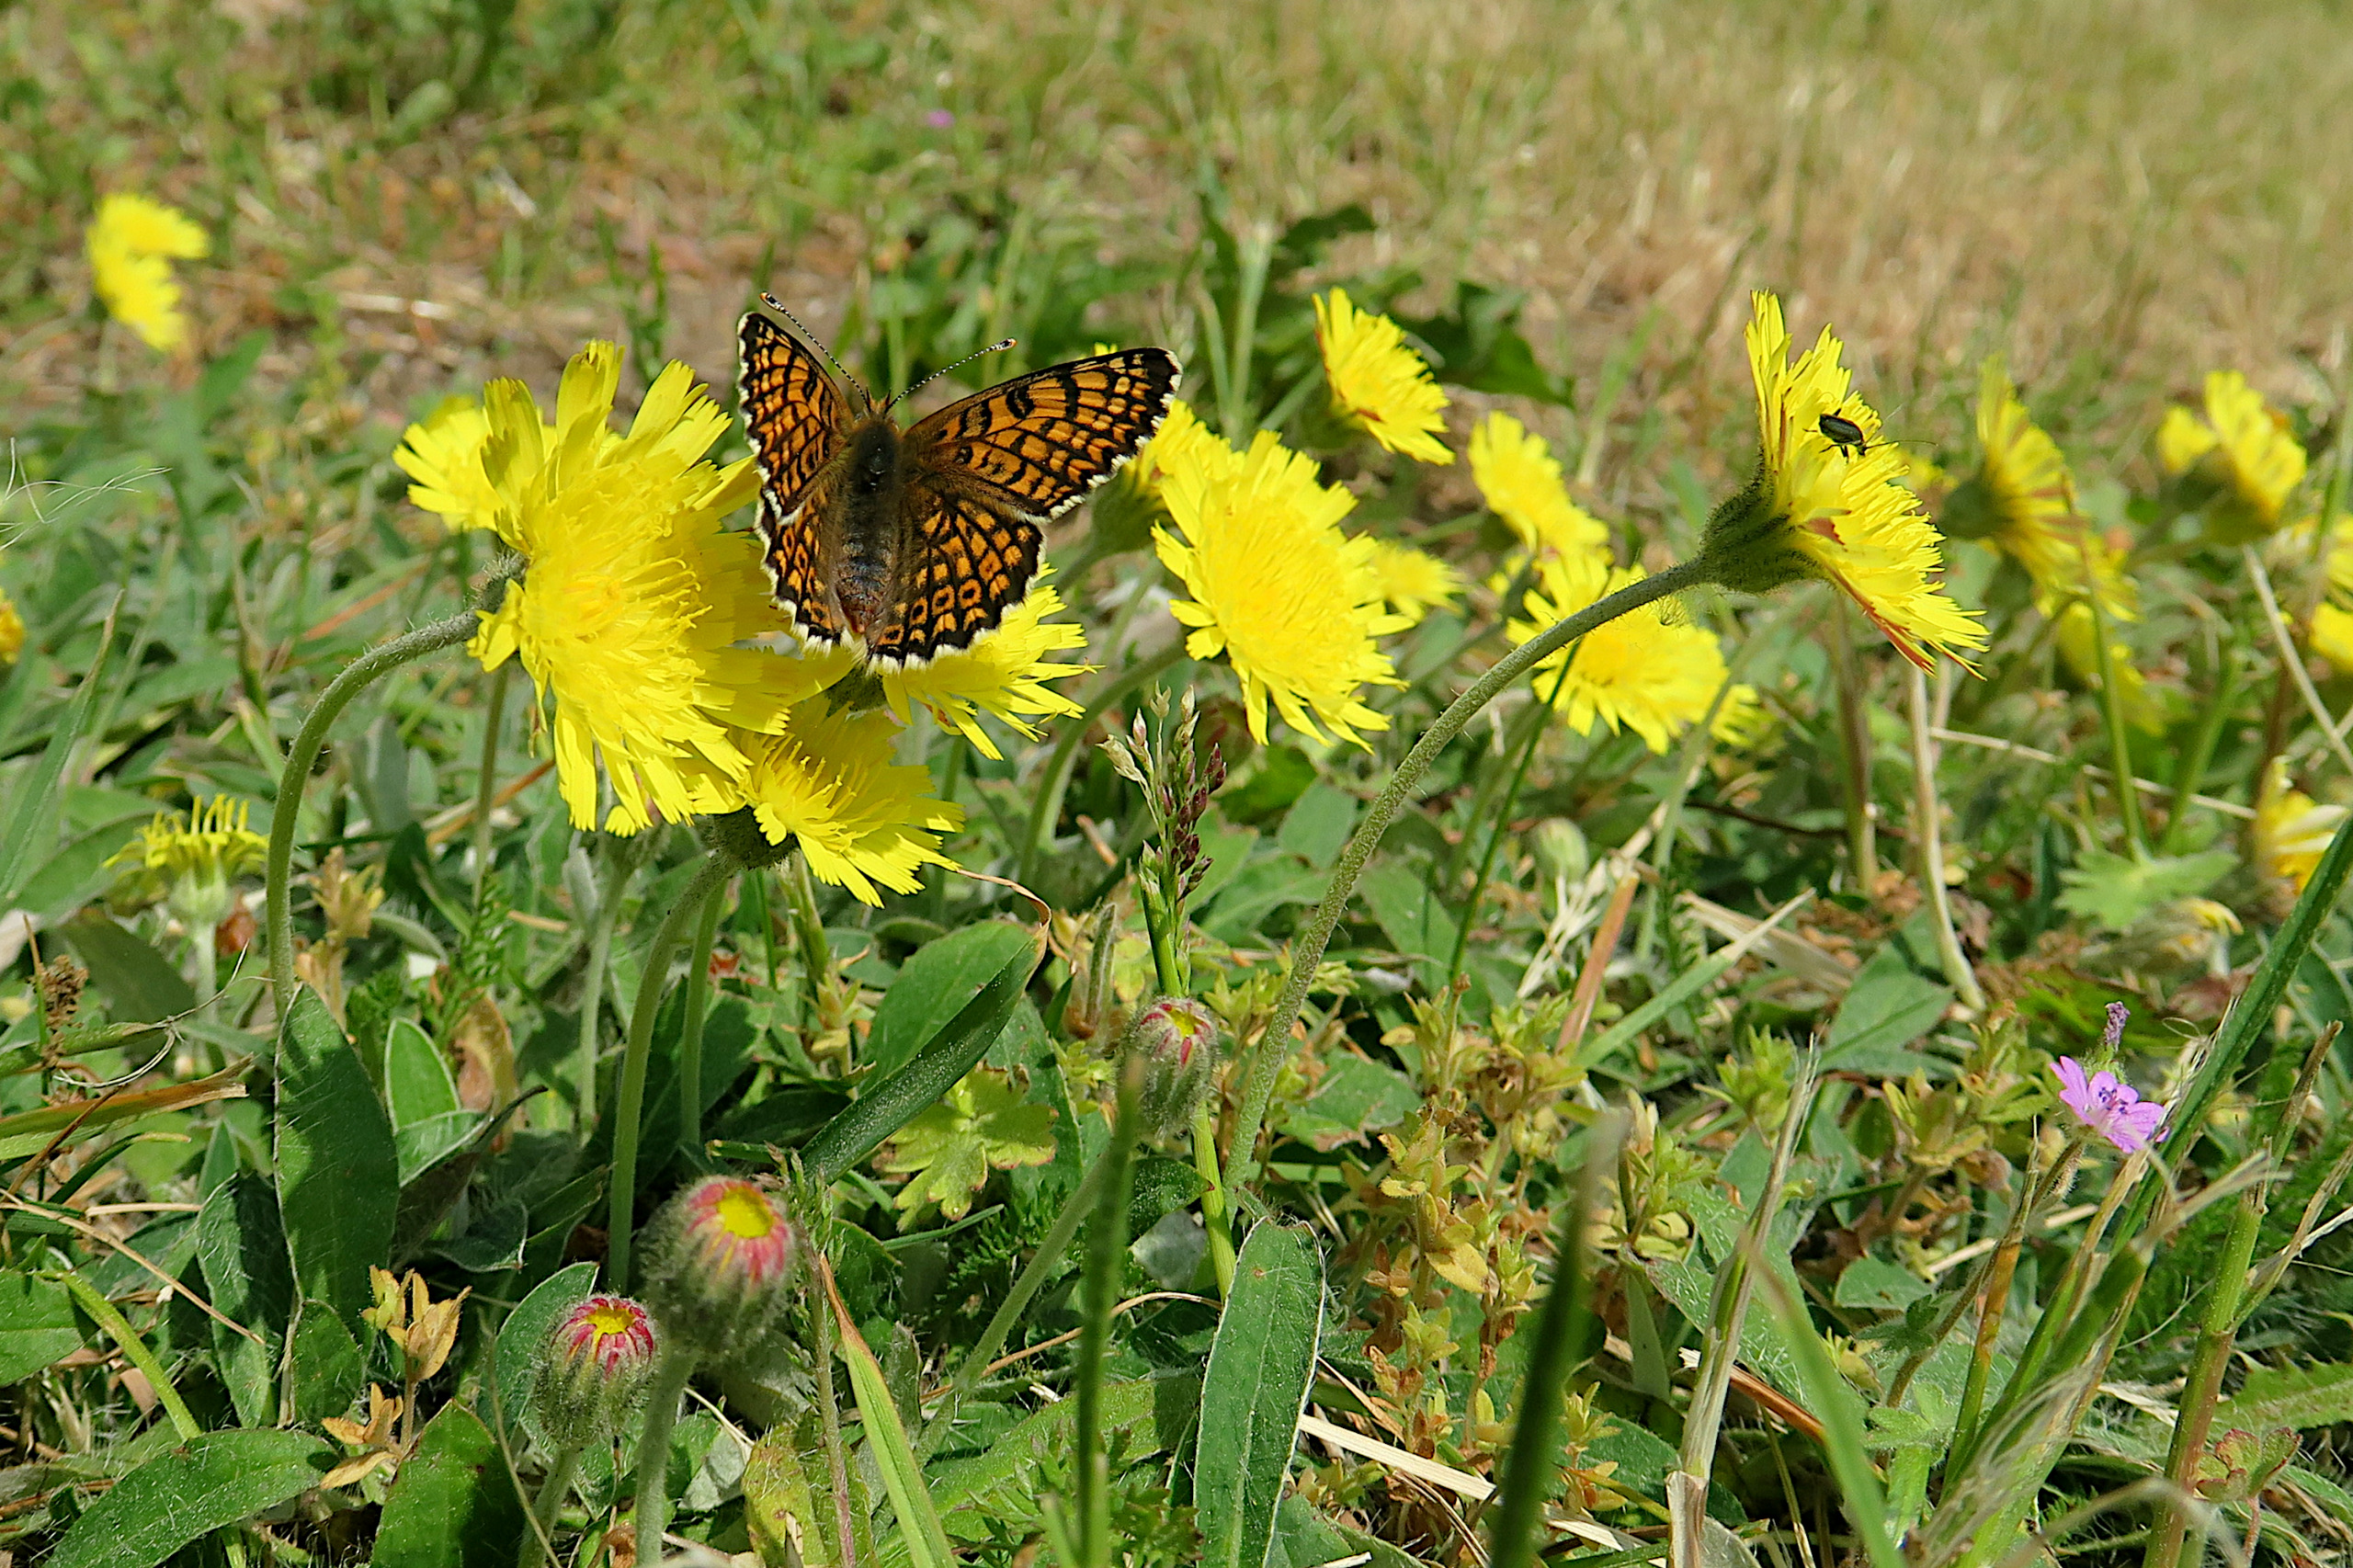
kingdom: Animalia
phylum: Arthropoda
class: Insecta
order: Lepidoptera
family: Nymphalidae
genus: Melitaea
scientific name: Melitaea cinxia
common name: Okkergul pletvinge
